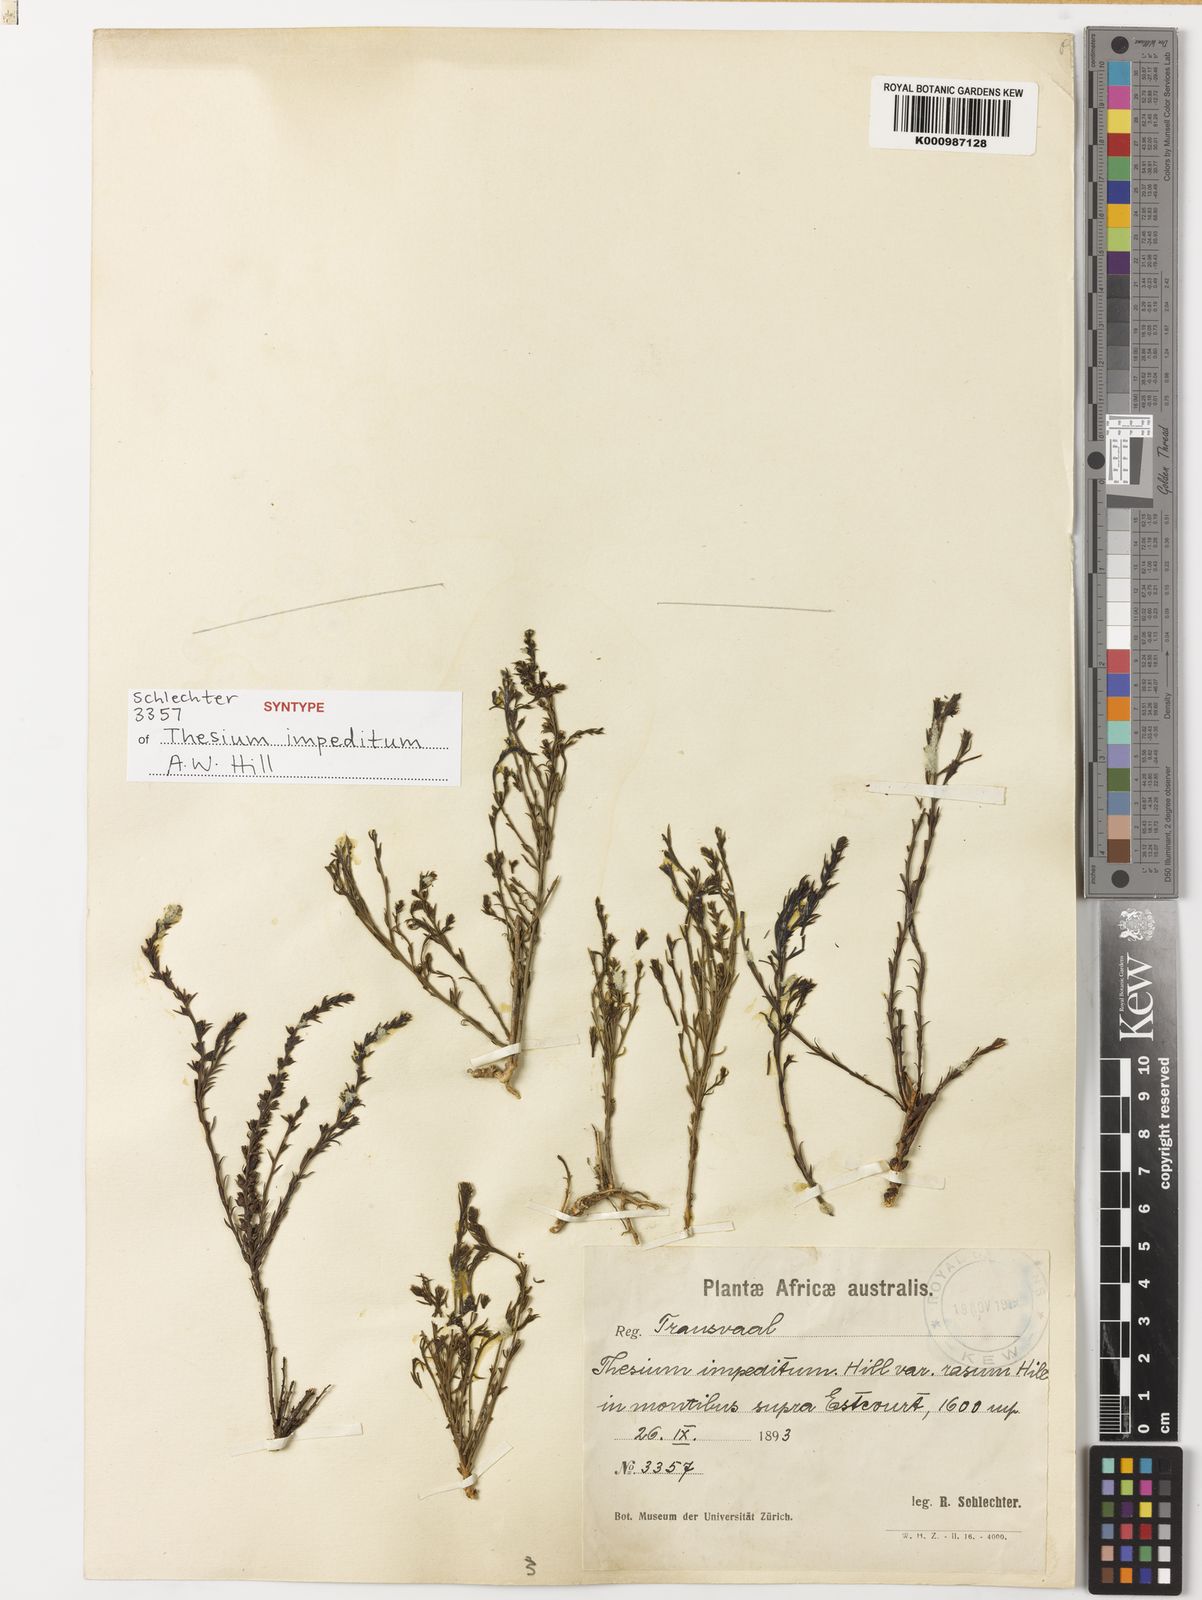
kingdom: Plantae
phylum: Tracheophyta
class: Magnoliopsida
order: Santalales
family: Thesiaceae
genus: Thesium
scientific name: Thesium impeditum
